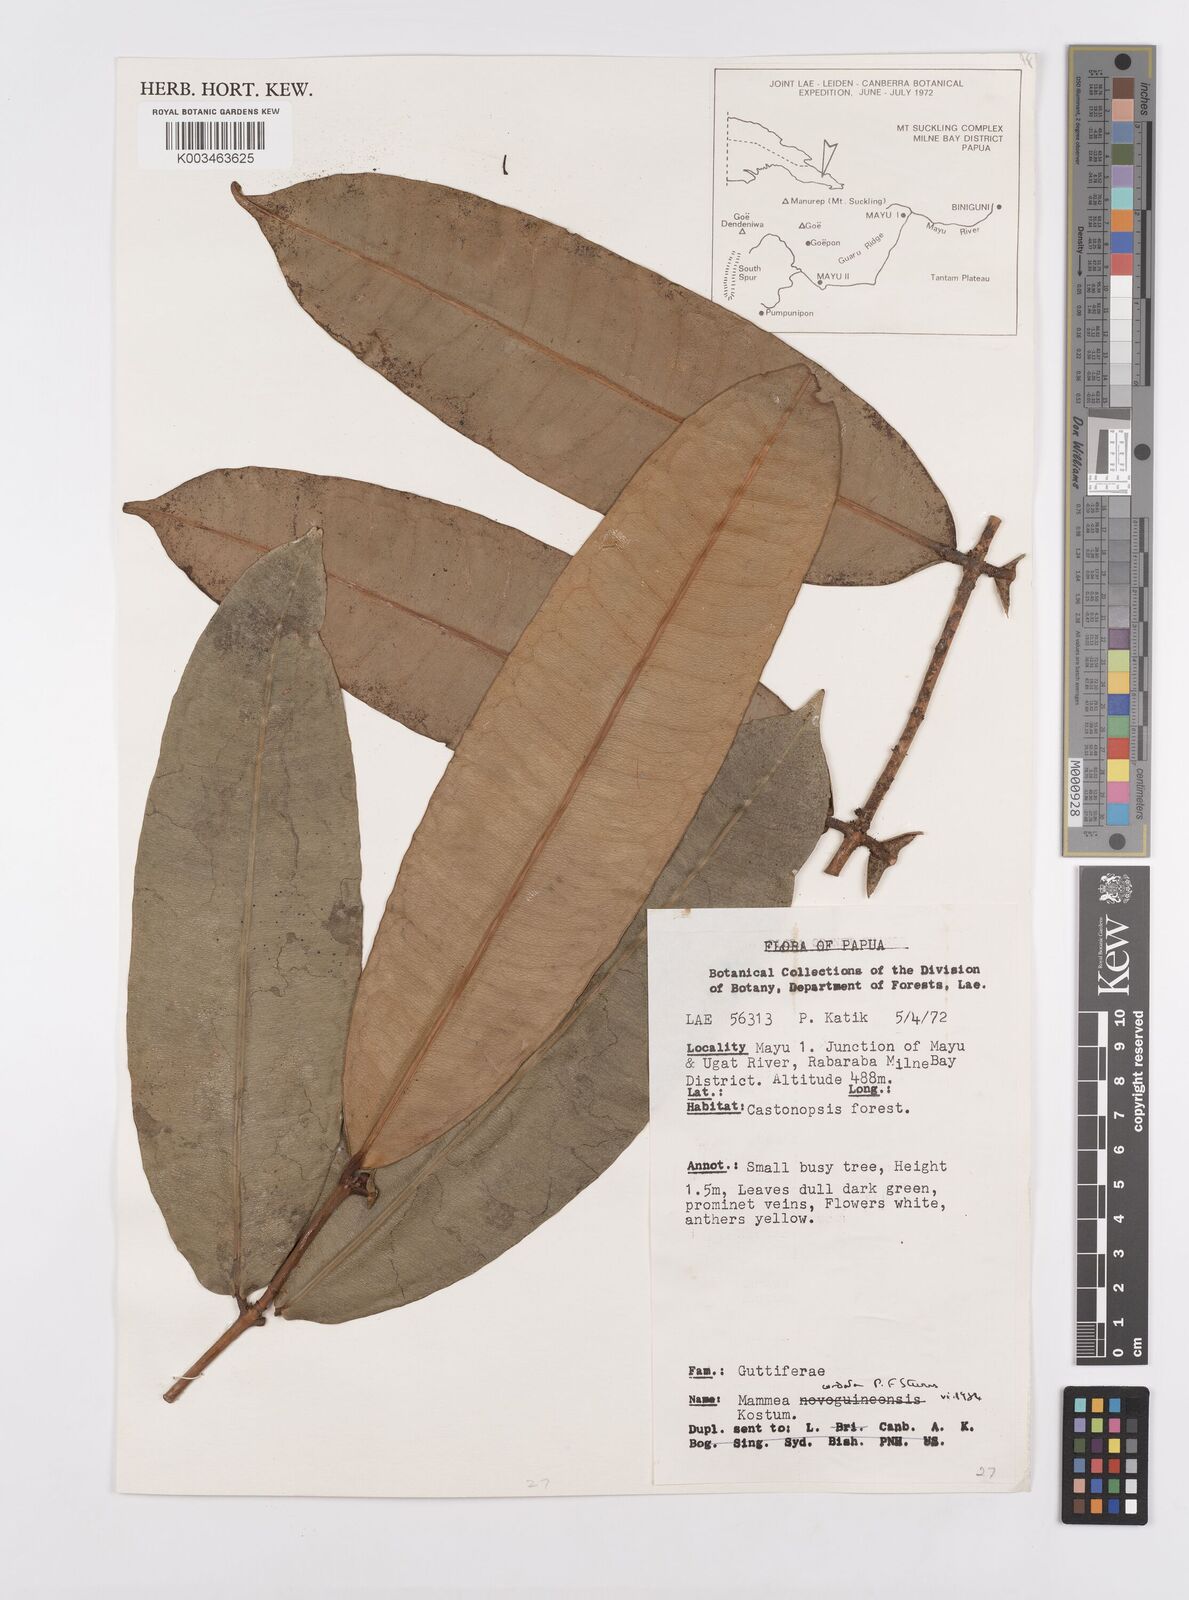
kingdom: Plantae
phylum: Tracheophyta
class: Magnoliopsida
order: Malpighiales
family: Calophyllaceae
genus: Mammea
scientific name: Mammea cordata
